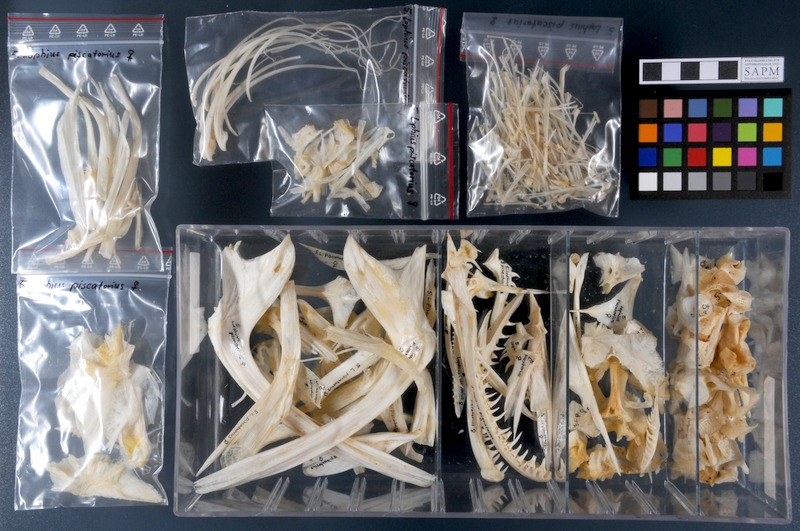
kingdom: Animalia
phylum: Chordata
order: Lophiiformes
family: Lophiidae
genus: Lophius
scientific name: Lophius piscatorius
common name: Angler
